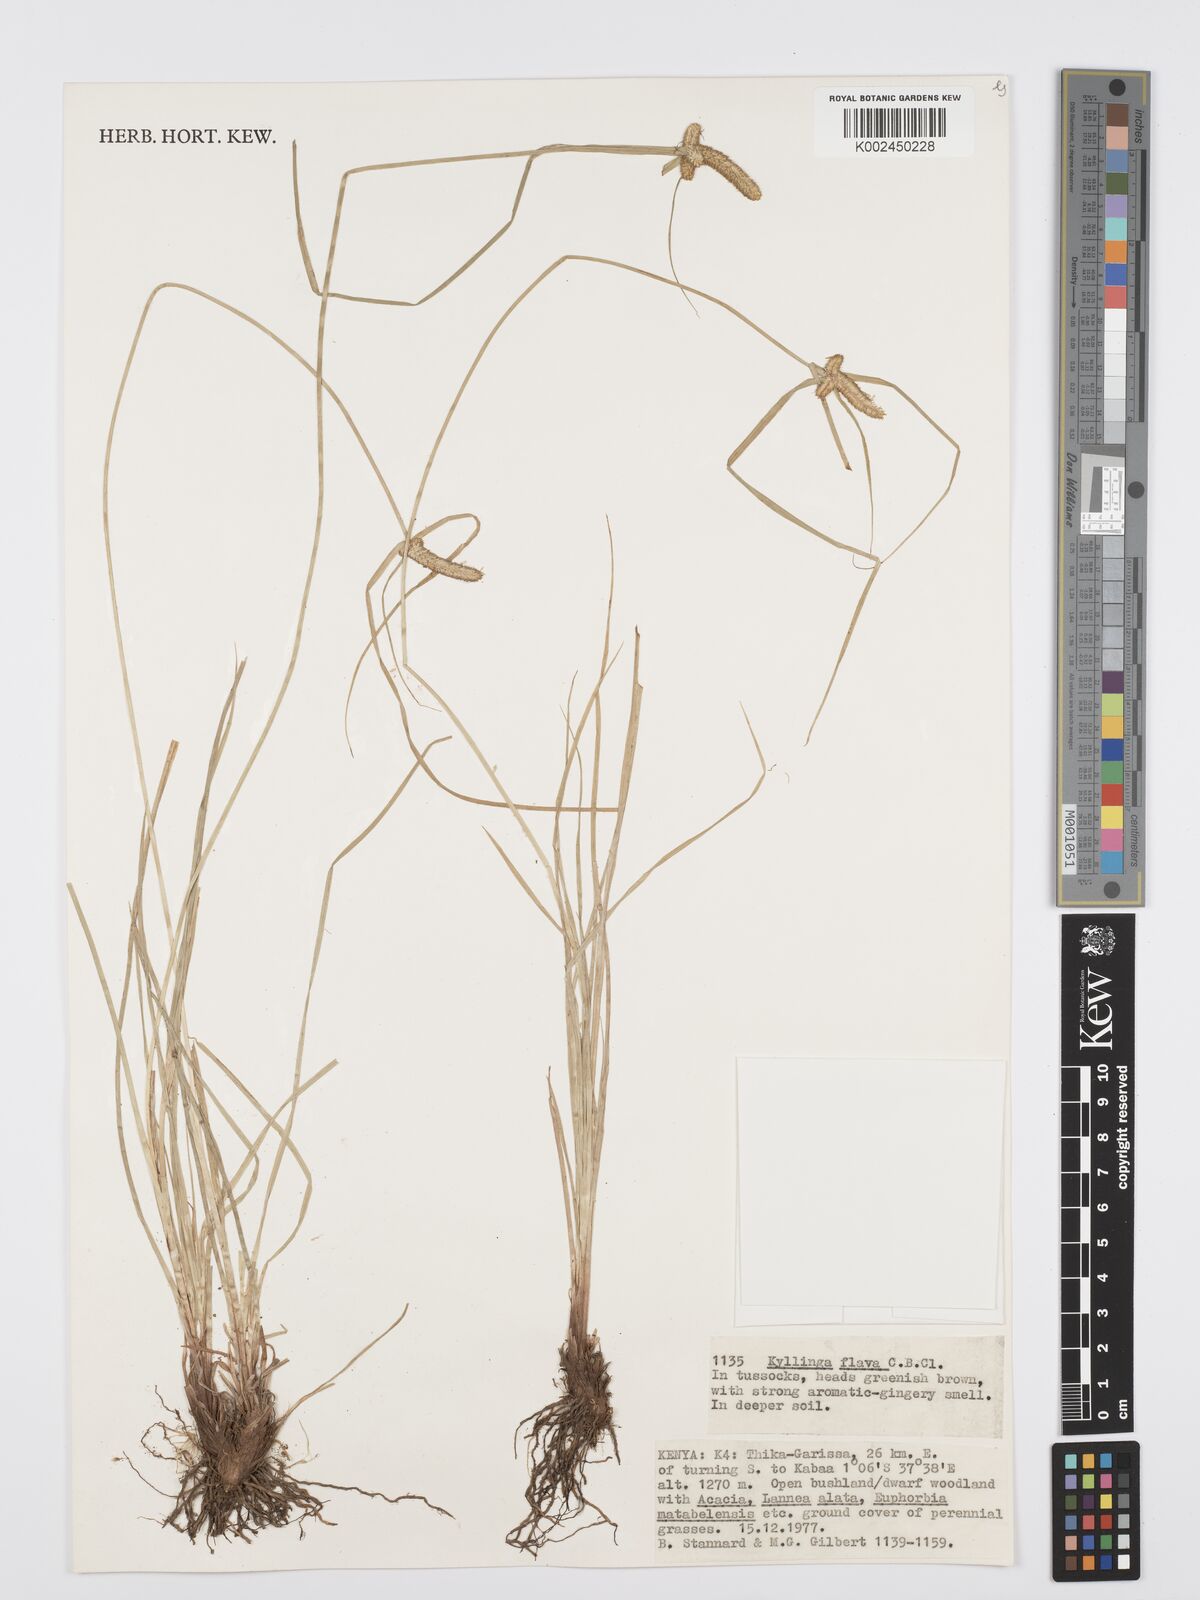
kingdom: Plantae
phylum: Tracheophyta
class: Liliopsida
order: Poales
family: Cyperaceae
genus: Cyperus
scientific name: Cyperus
